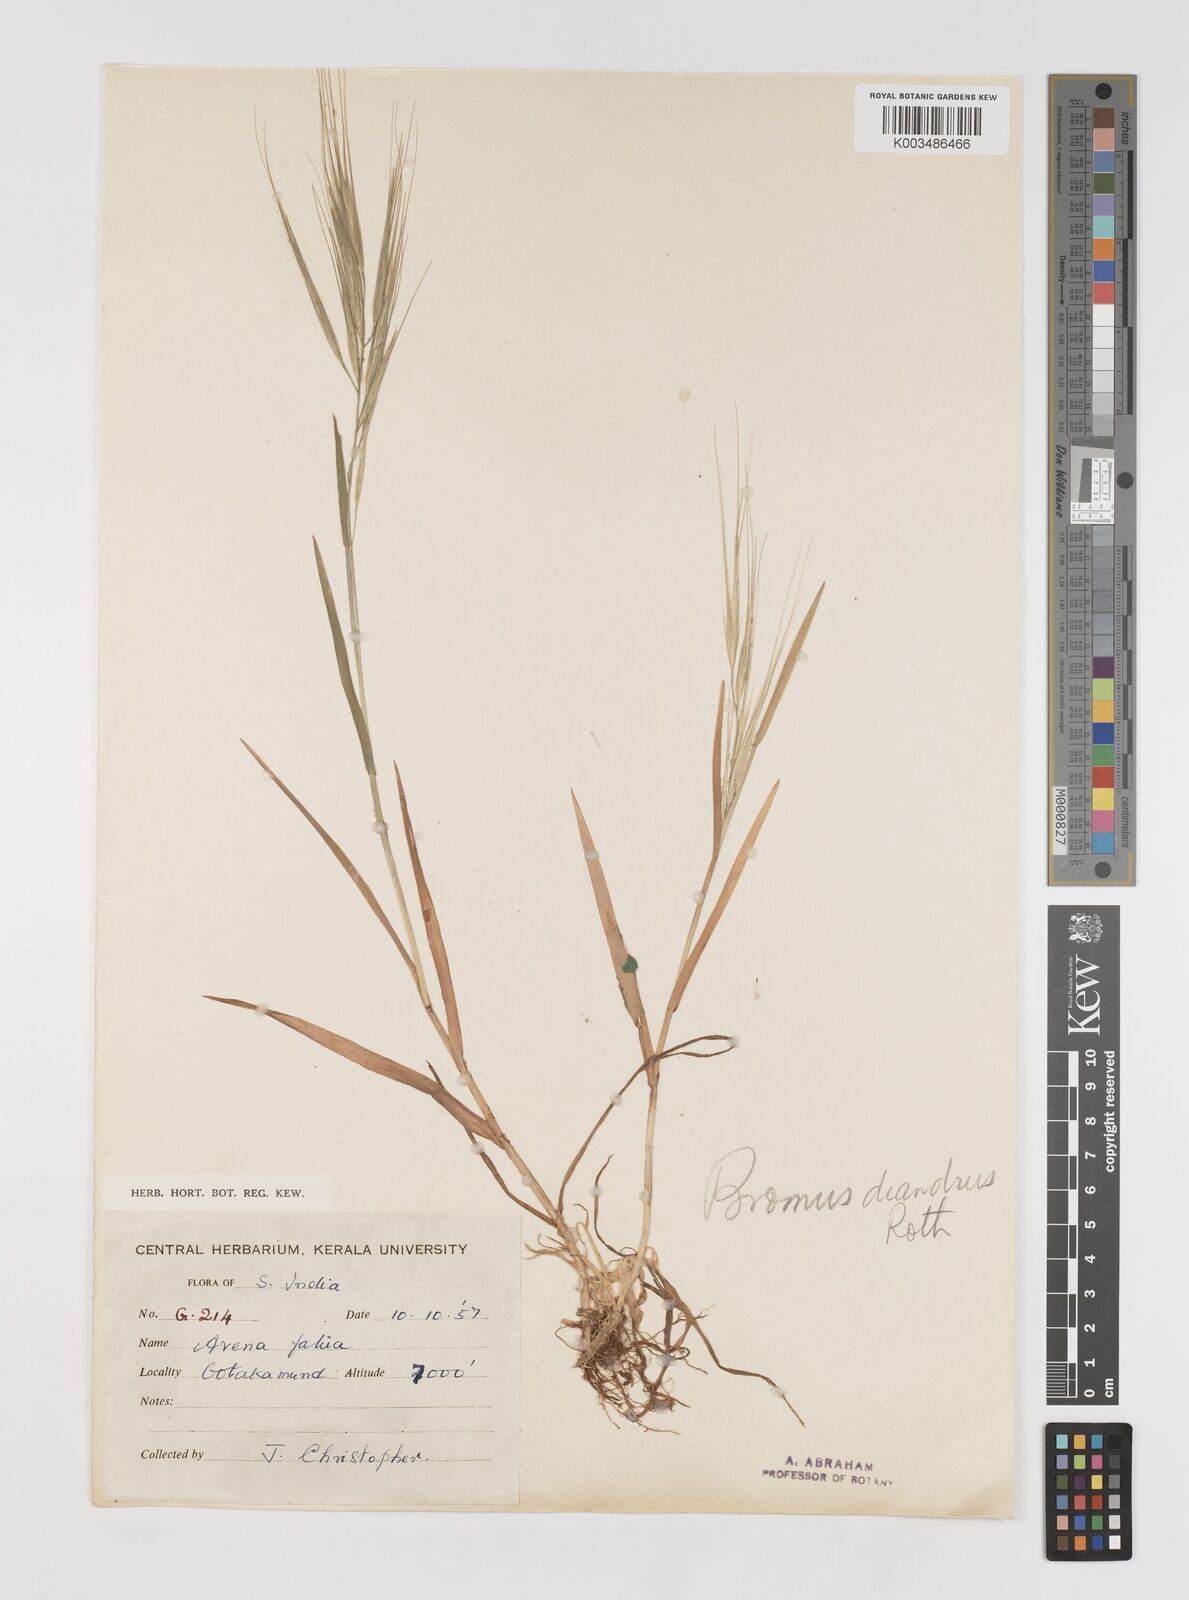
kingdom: Plantae
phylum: Tracheophyta
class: Liliopsida
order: Poales
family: Poaceae
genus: Bromus
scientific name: Bromus diandrus
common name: Ripgut brome
